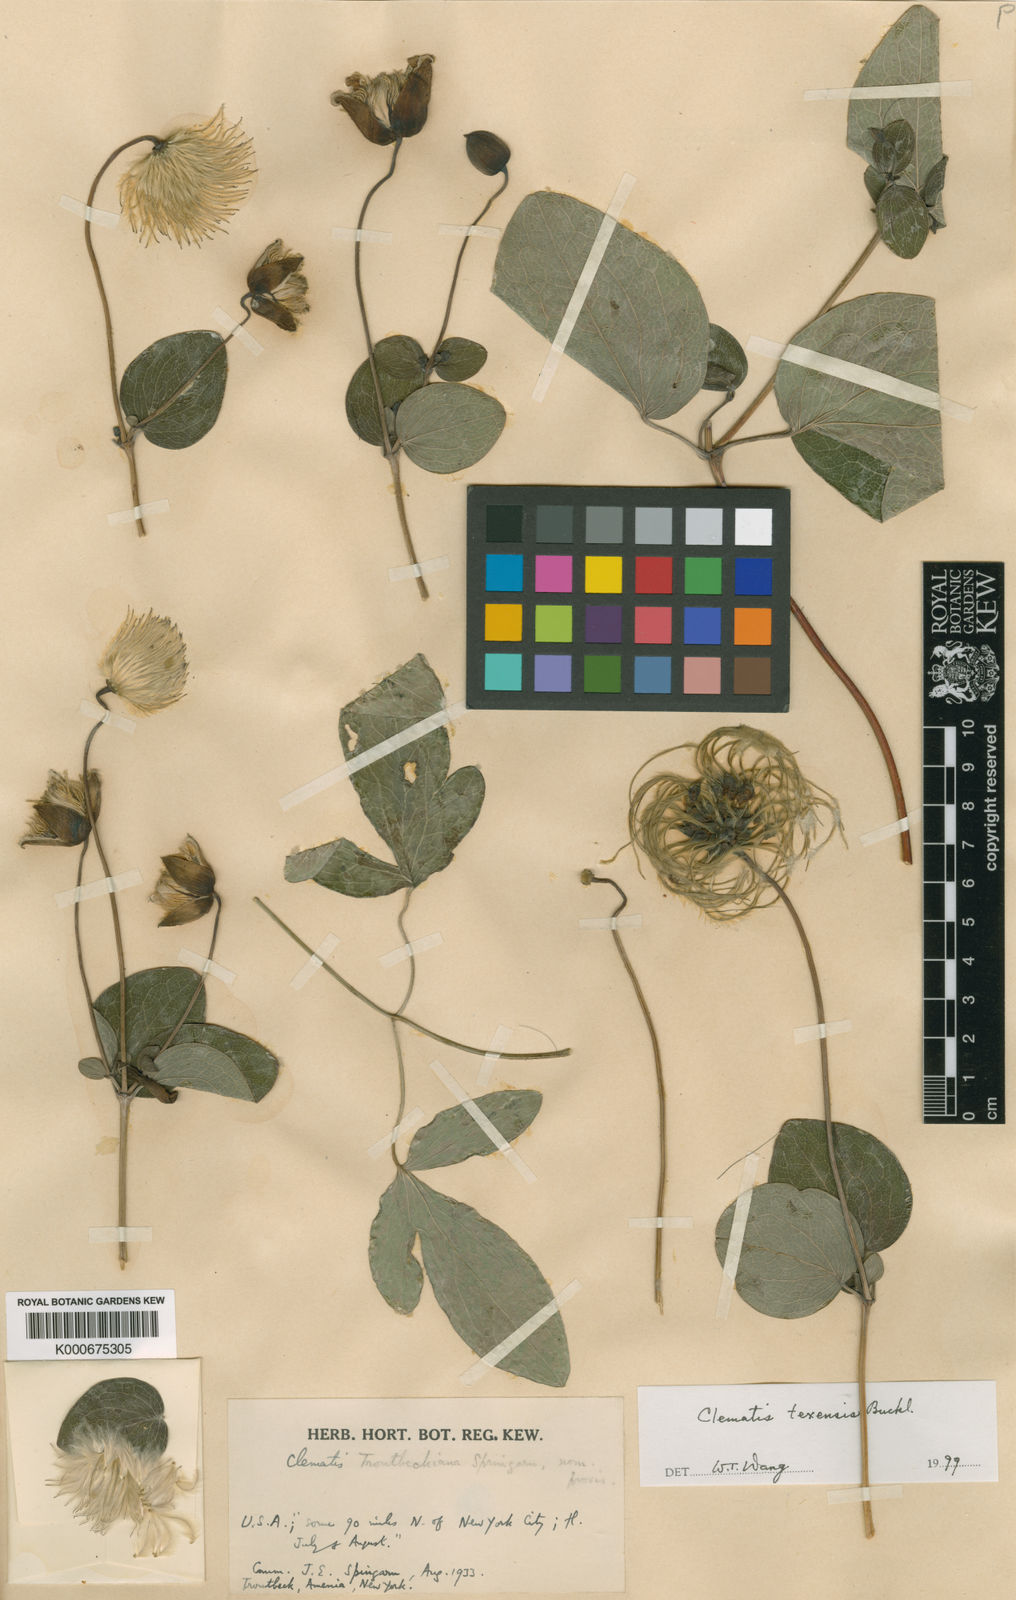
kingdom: Plantae
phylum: Tracheophyta
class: Magnoliopsida
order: Ranunculales
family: Ranunculaceae
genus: Clematis
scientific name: Clematis troutbeckiana
